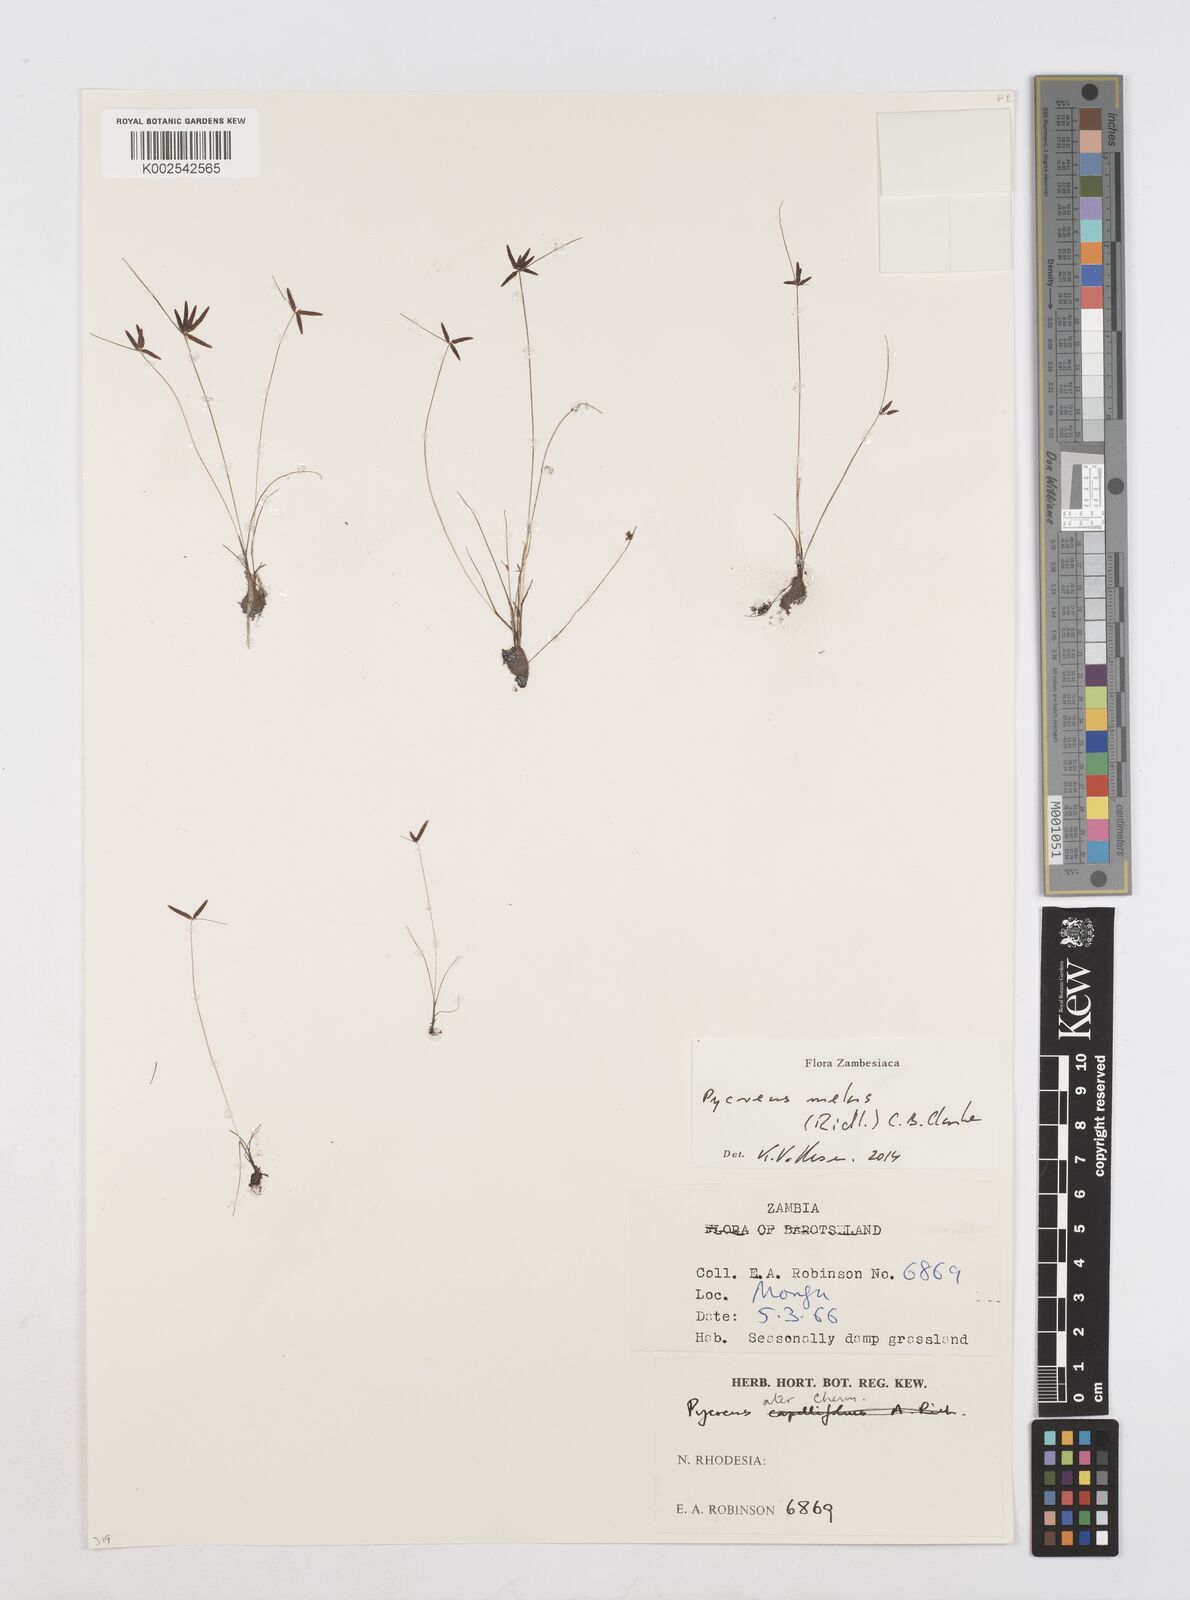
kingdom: Plantae
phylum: Tracheophyta
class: Liliopsida
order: Poales
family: Cyperaceae
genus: Cyperus
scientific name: Cyperus melas
